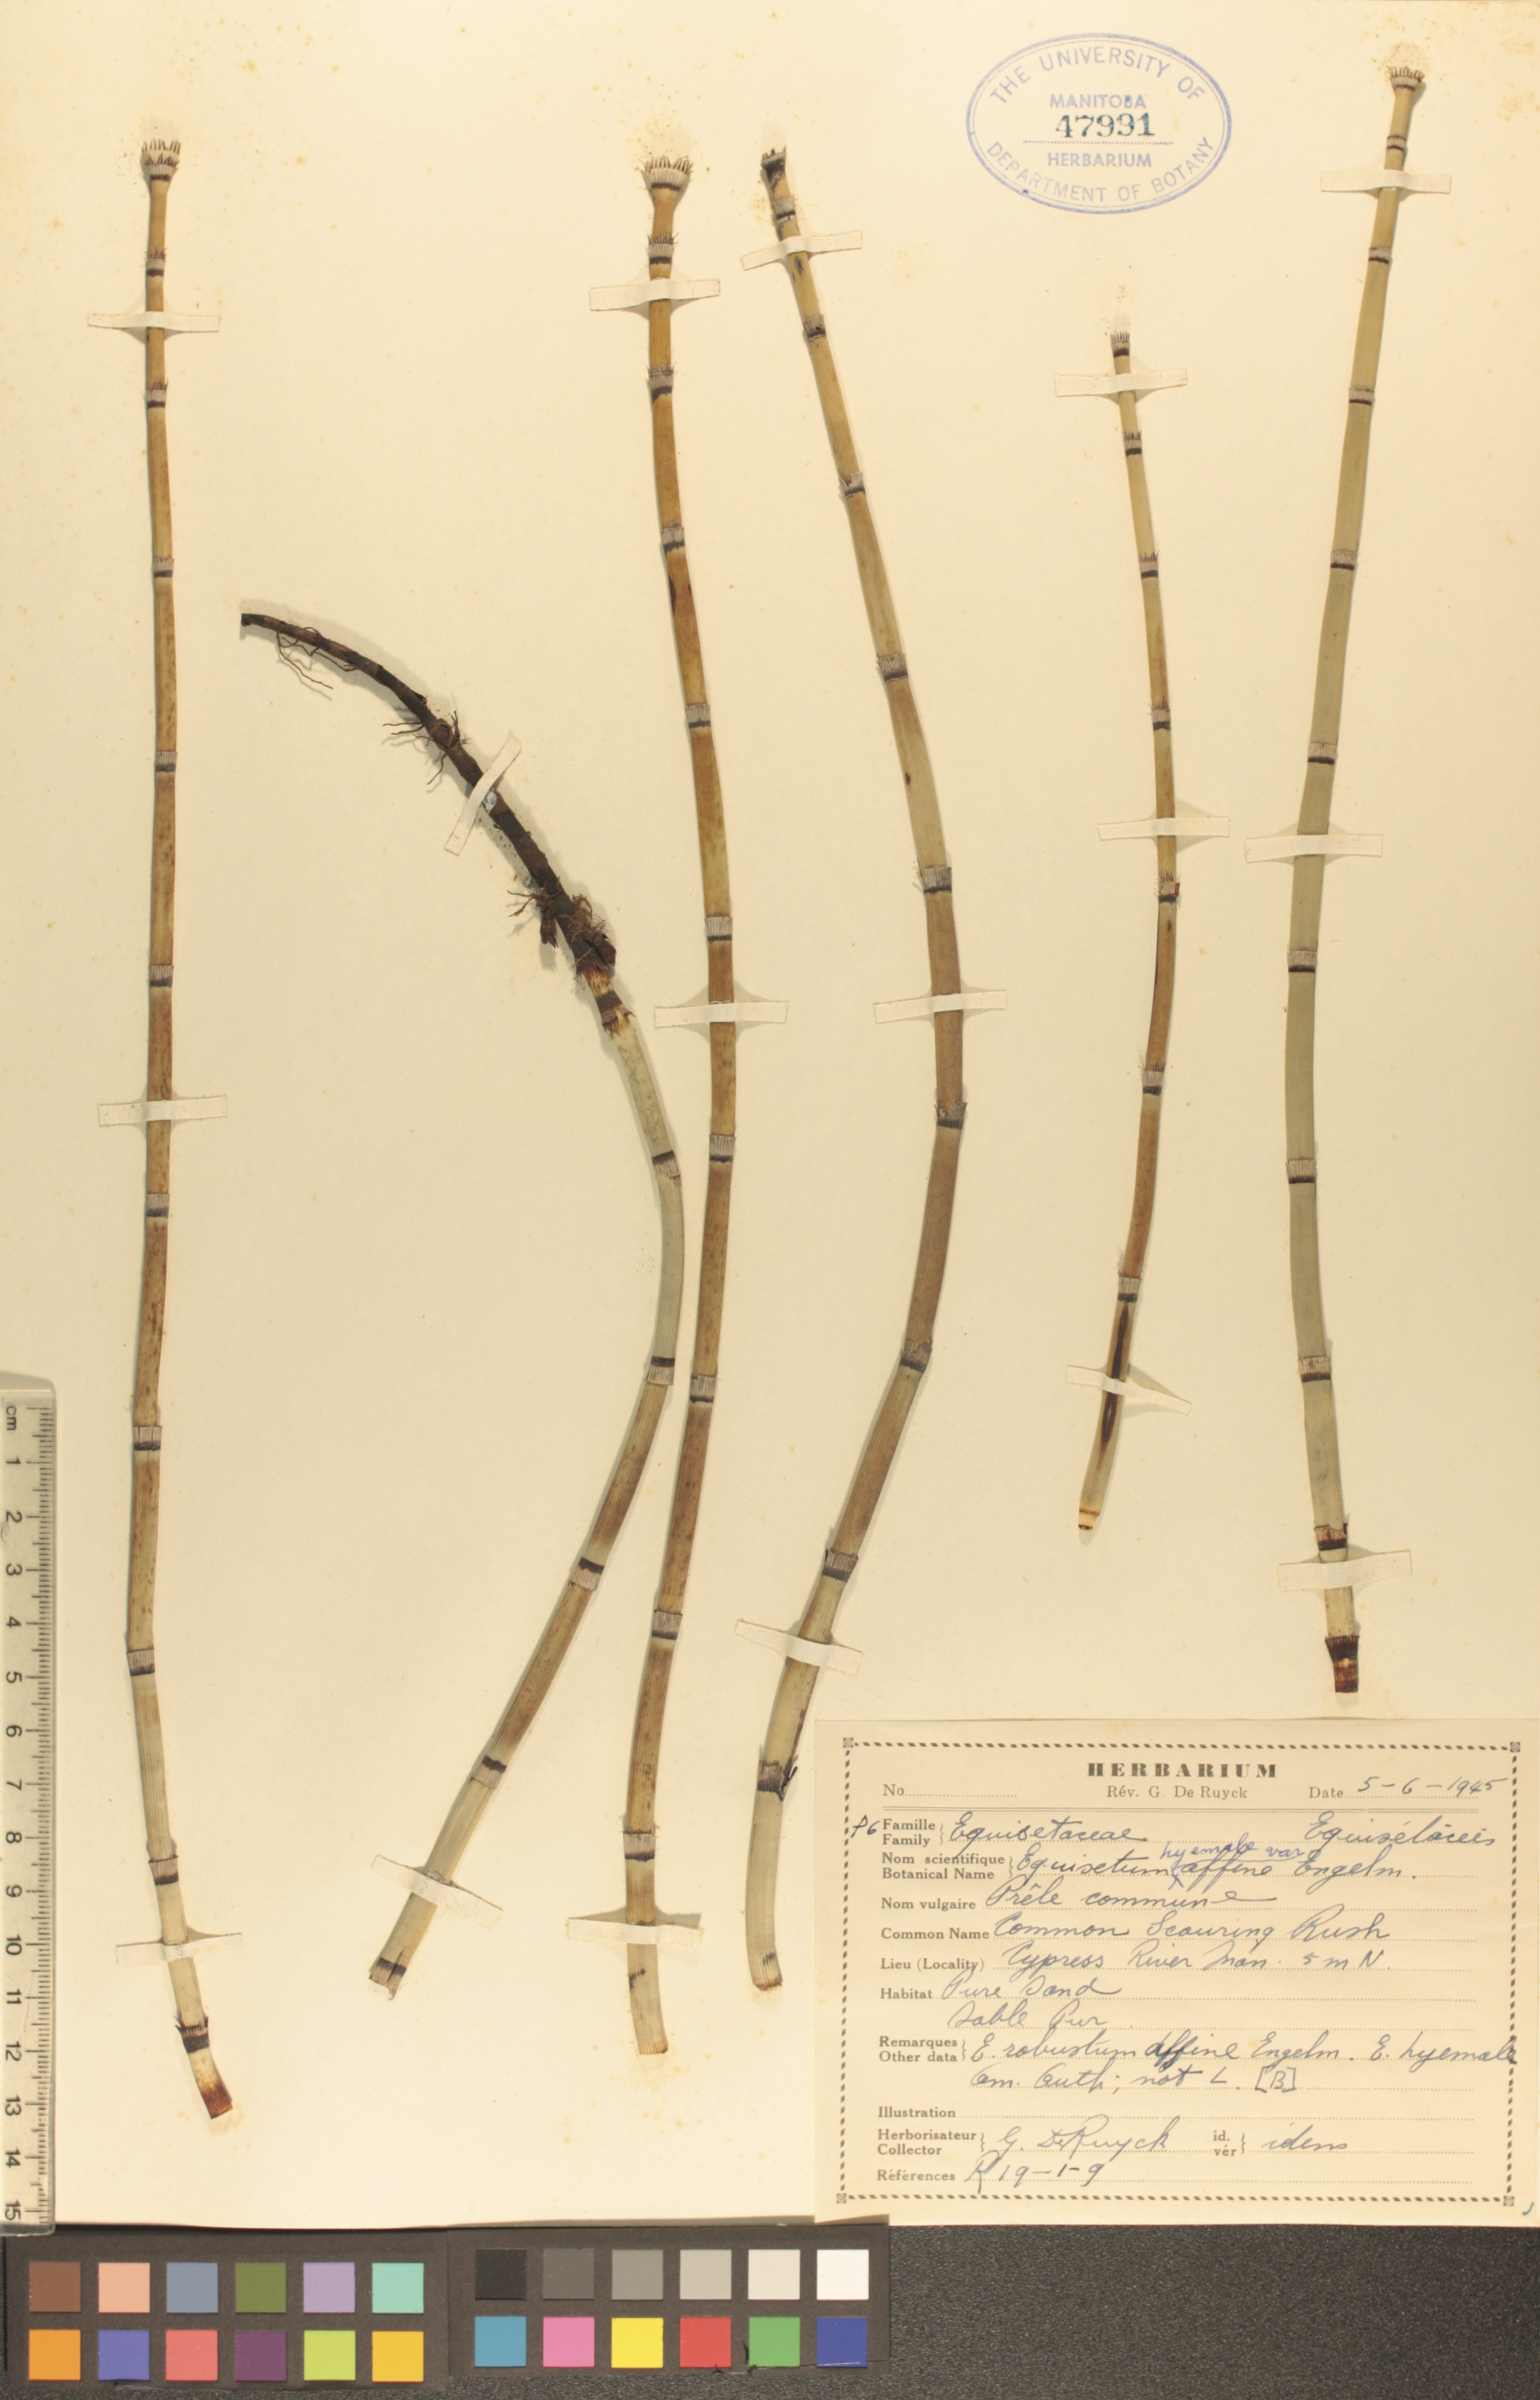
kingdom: Plantae
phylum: Tracheophyta
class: Polypodiopsida
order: Equisetales
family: Equisetaceae
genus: Equisetum
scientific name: Equisetum praealtum
